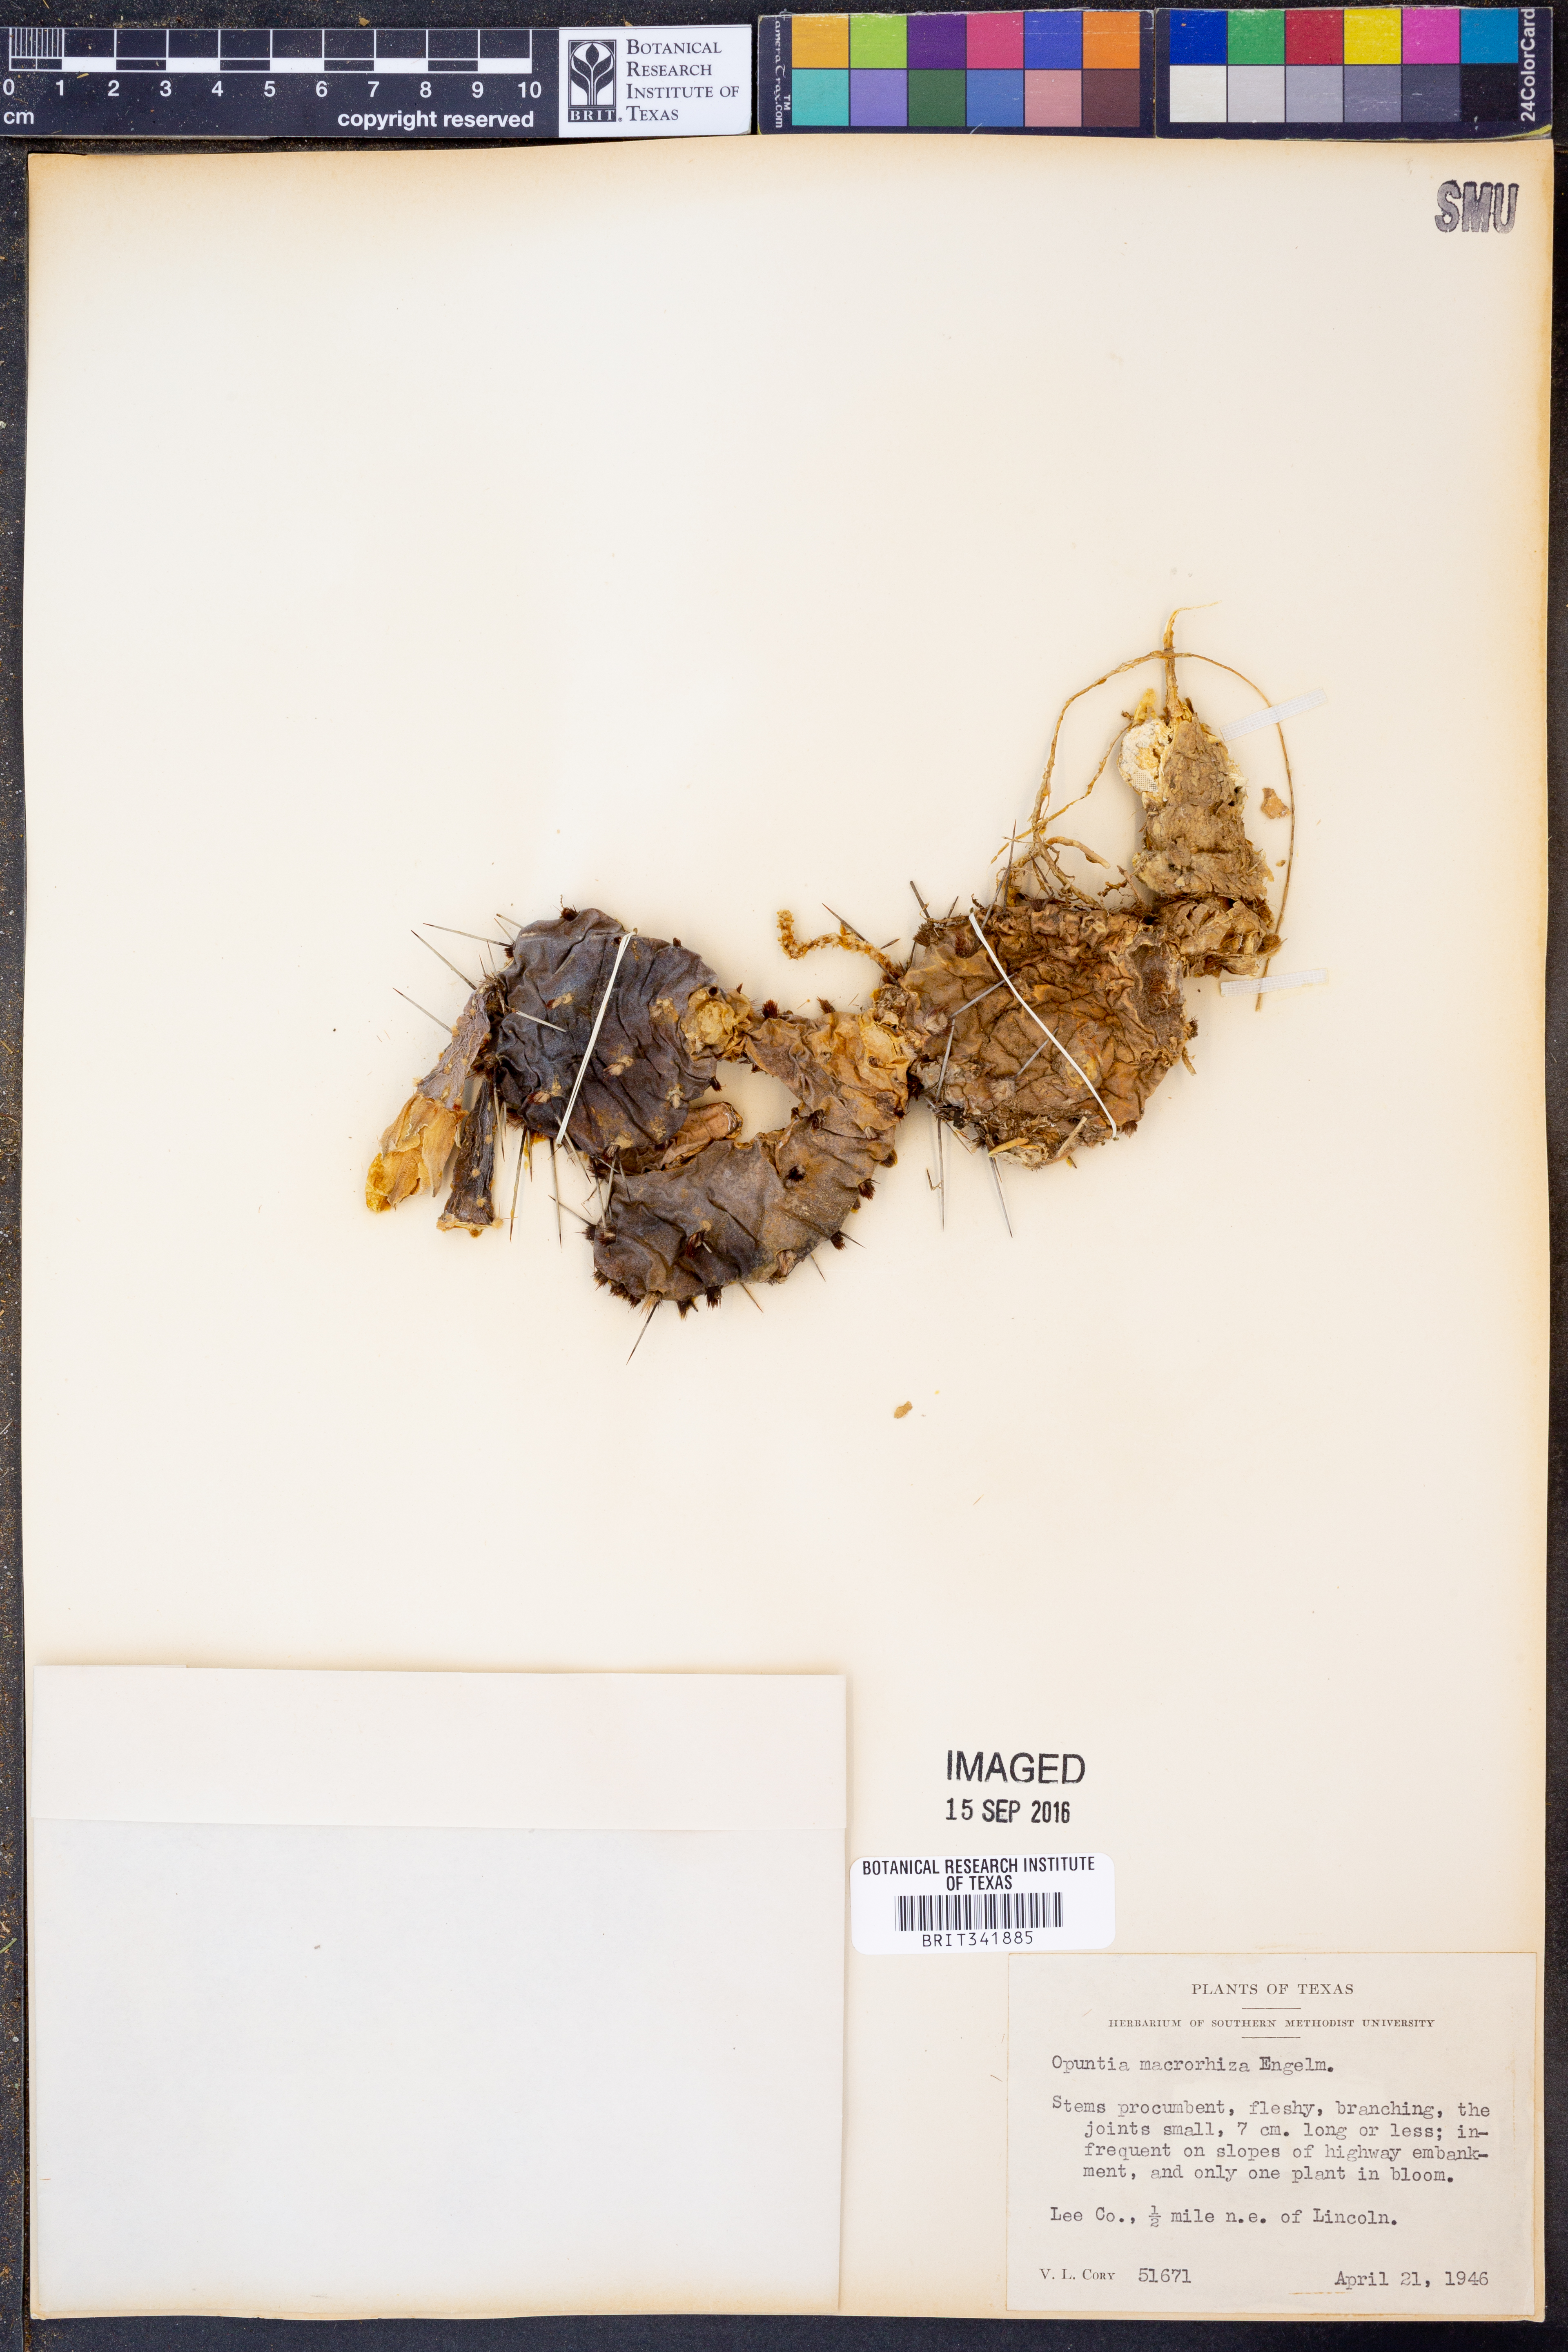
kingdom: Plantae
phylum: Tracheophyta
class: Magnoliopsida
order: Caryophyllales
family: Cactaceae
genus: Opuntia
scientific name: Opuntia macrorhiza
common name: Grassland pricklypear
